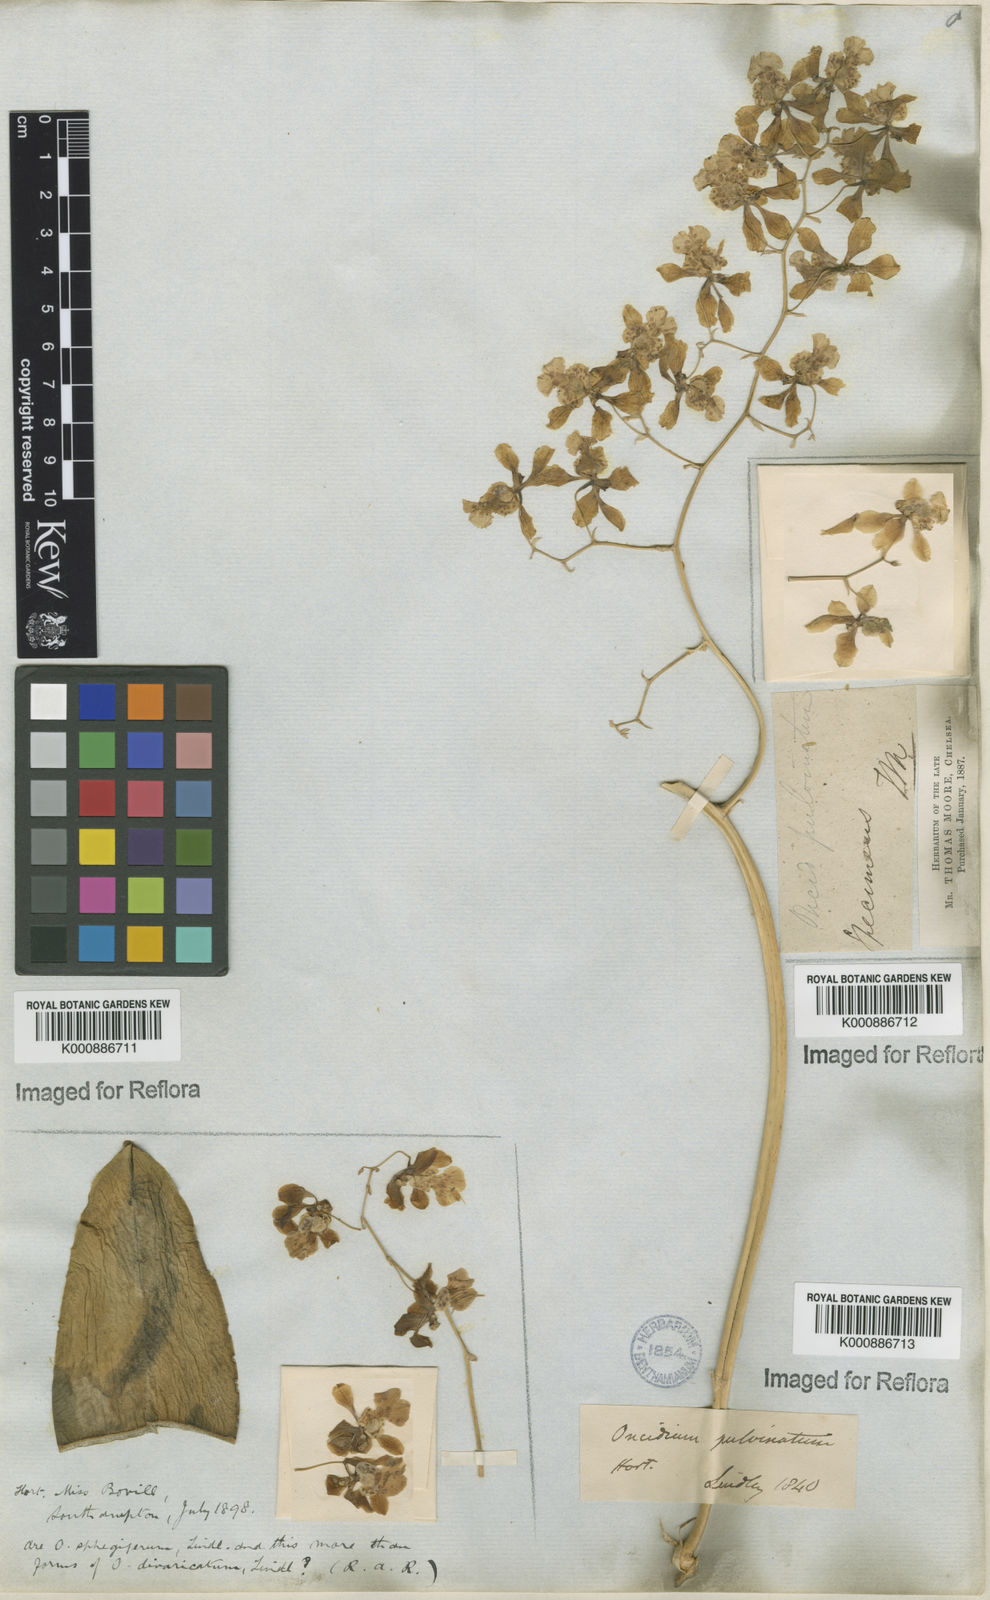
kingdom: Plantae
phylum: Tracheophyta
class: Liliopsida
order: Asparagales
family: Orchidaceae
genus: Grandiphyllum
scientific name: Grandiphyllum divaricatum
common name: Mule-ear orchid
